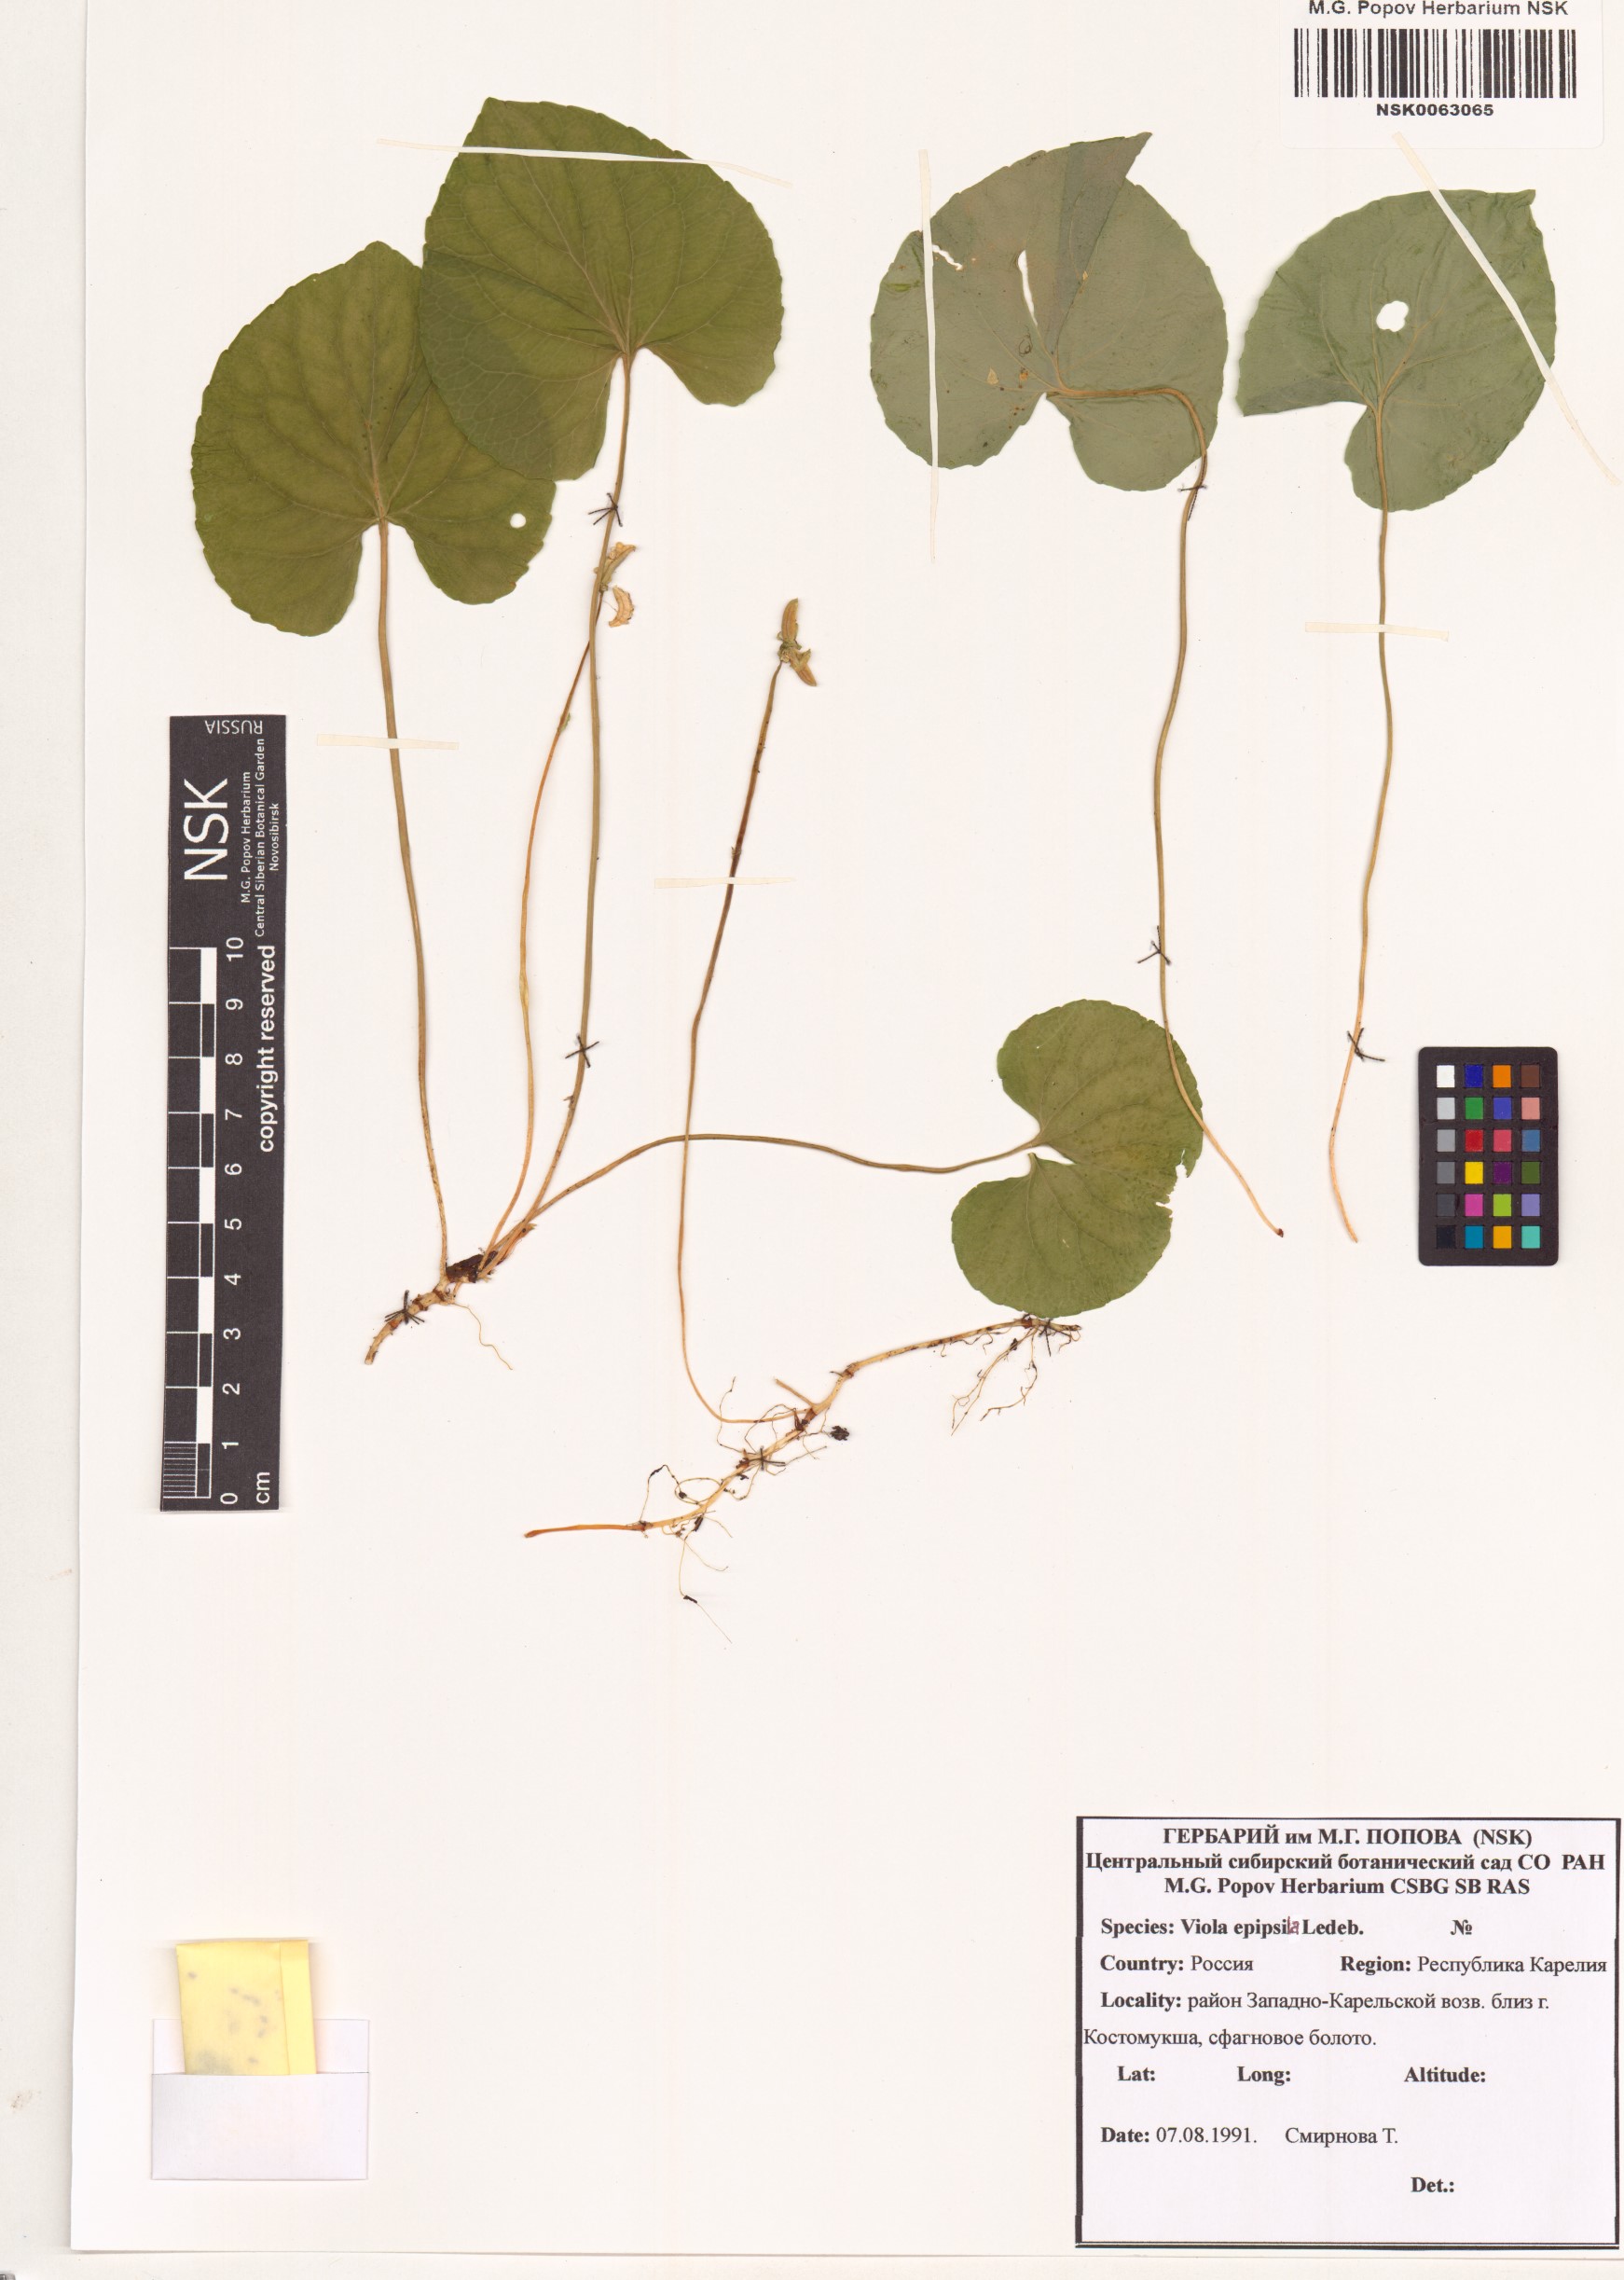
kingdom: Plantae
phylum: Tracheophyta
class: Magnoliopsida
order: Malpighiales
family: Violaceae
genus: Viola
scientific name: Viola epipsila
